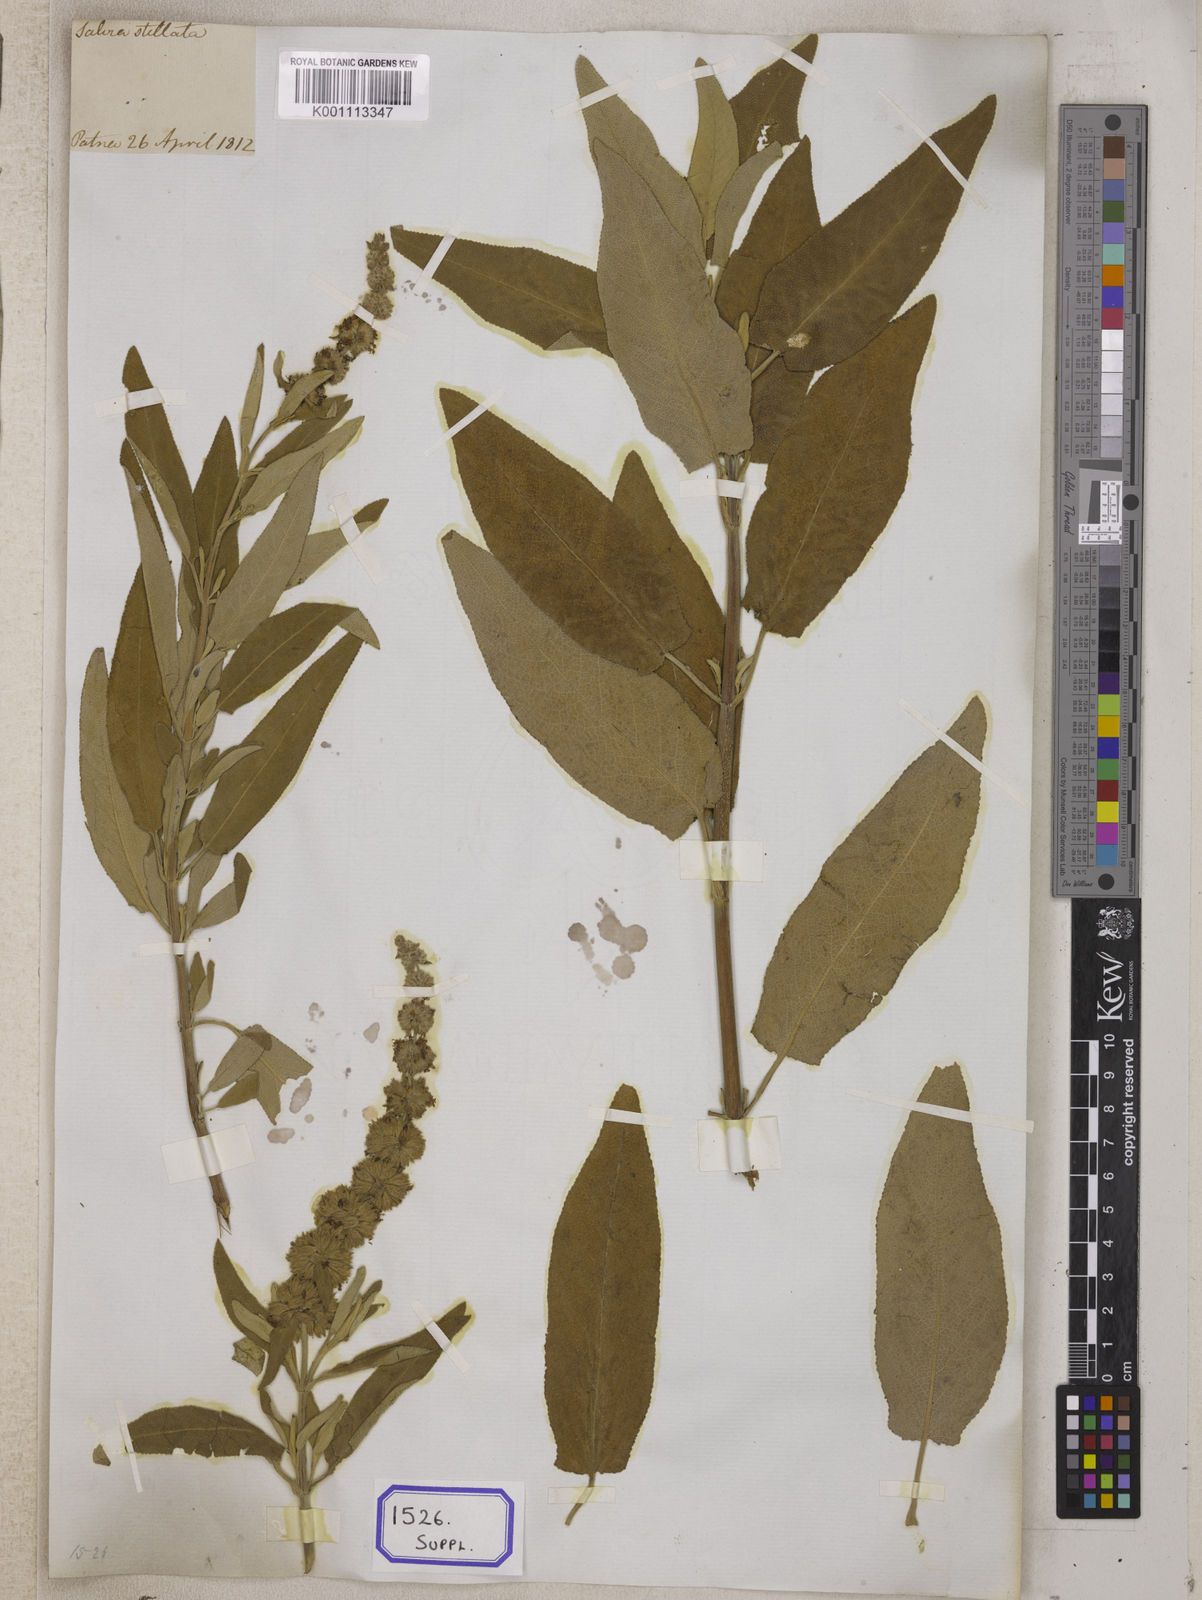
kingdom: Plantae
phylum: Tracheophyta
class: Magnoliopsida
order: Lamiales
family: Lamiaceae
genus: Salvia
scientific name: Salvia dianthera
